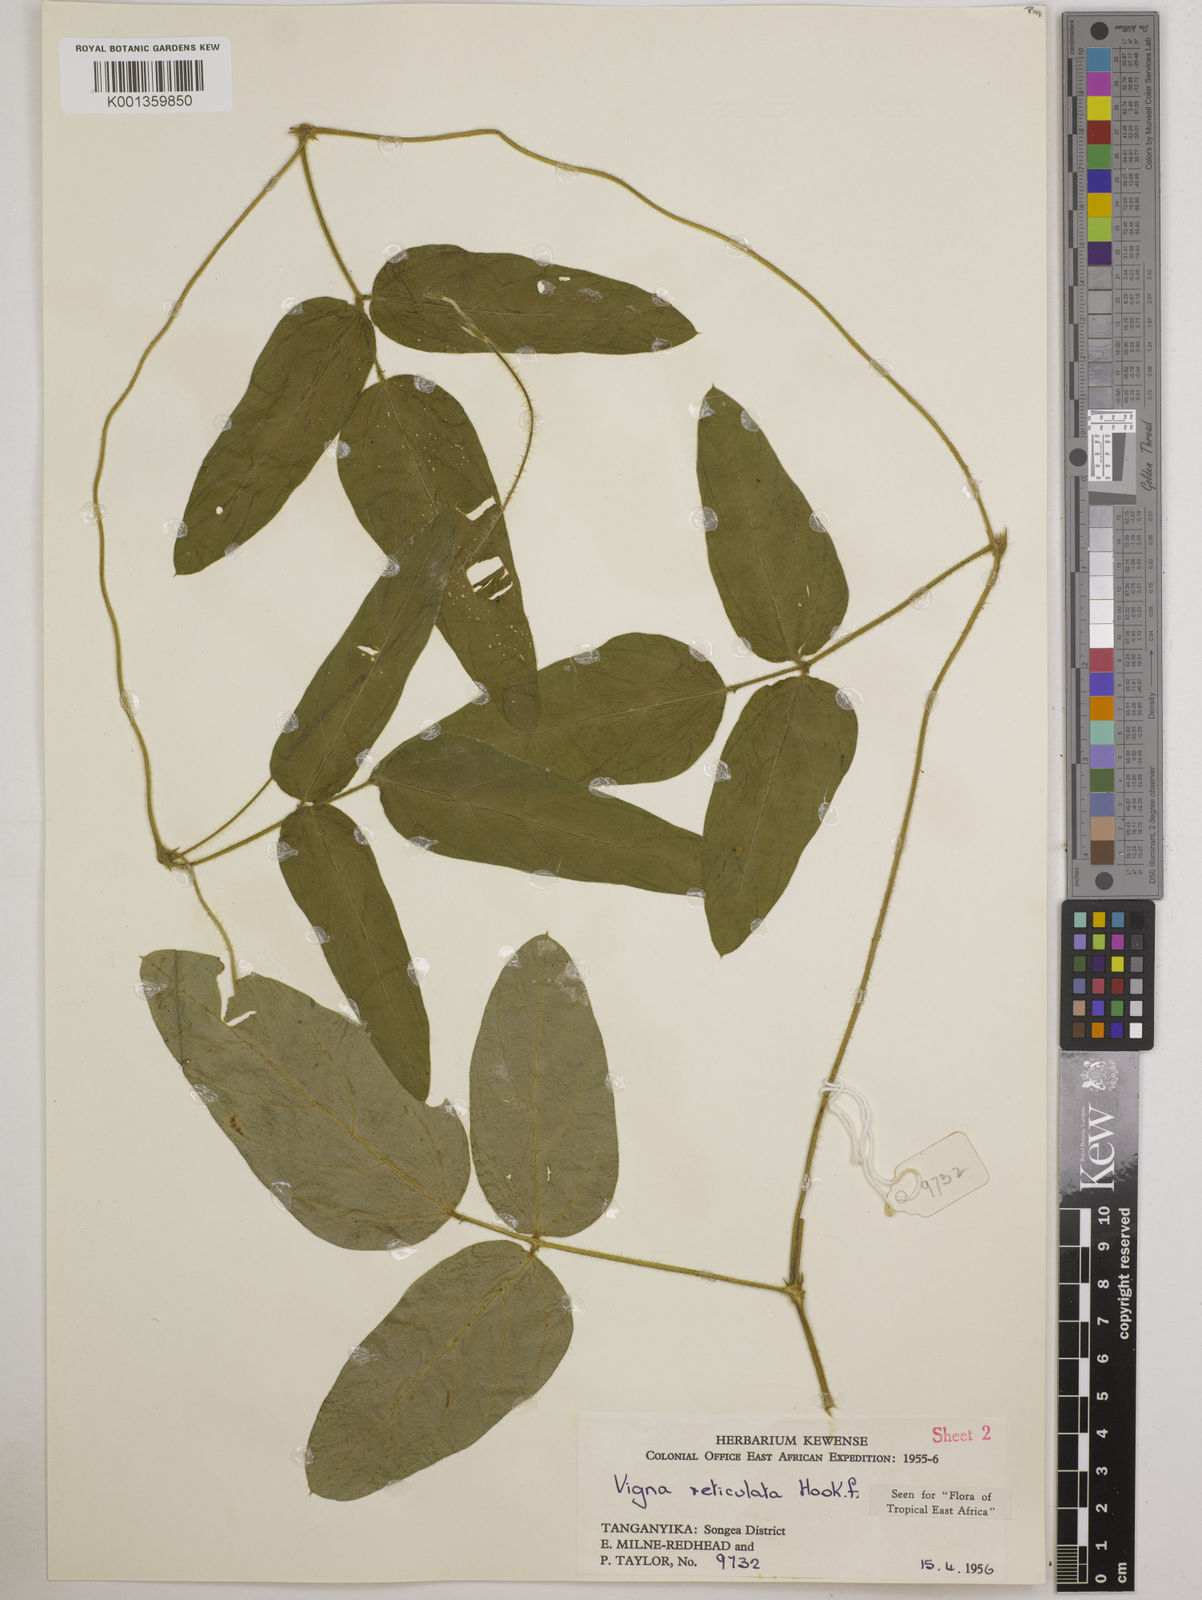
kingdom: Plantae
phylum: Tracheophyta
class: Magnoliopsida
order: Fabales
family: Fabaceae
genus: Vigna
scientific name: Vigna reticulata
